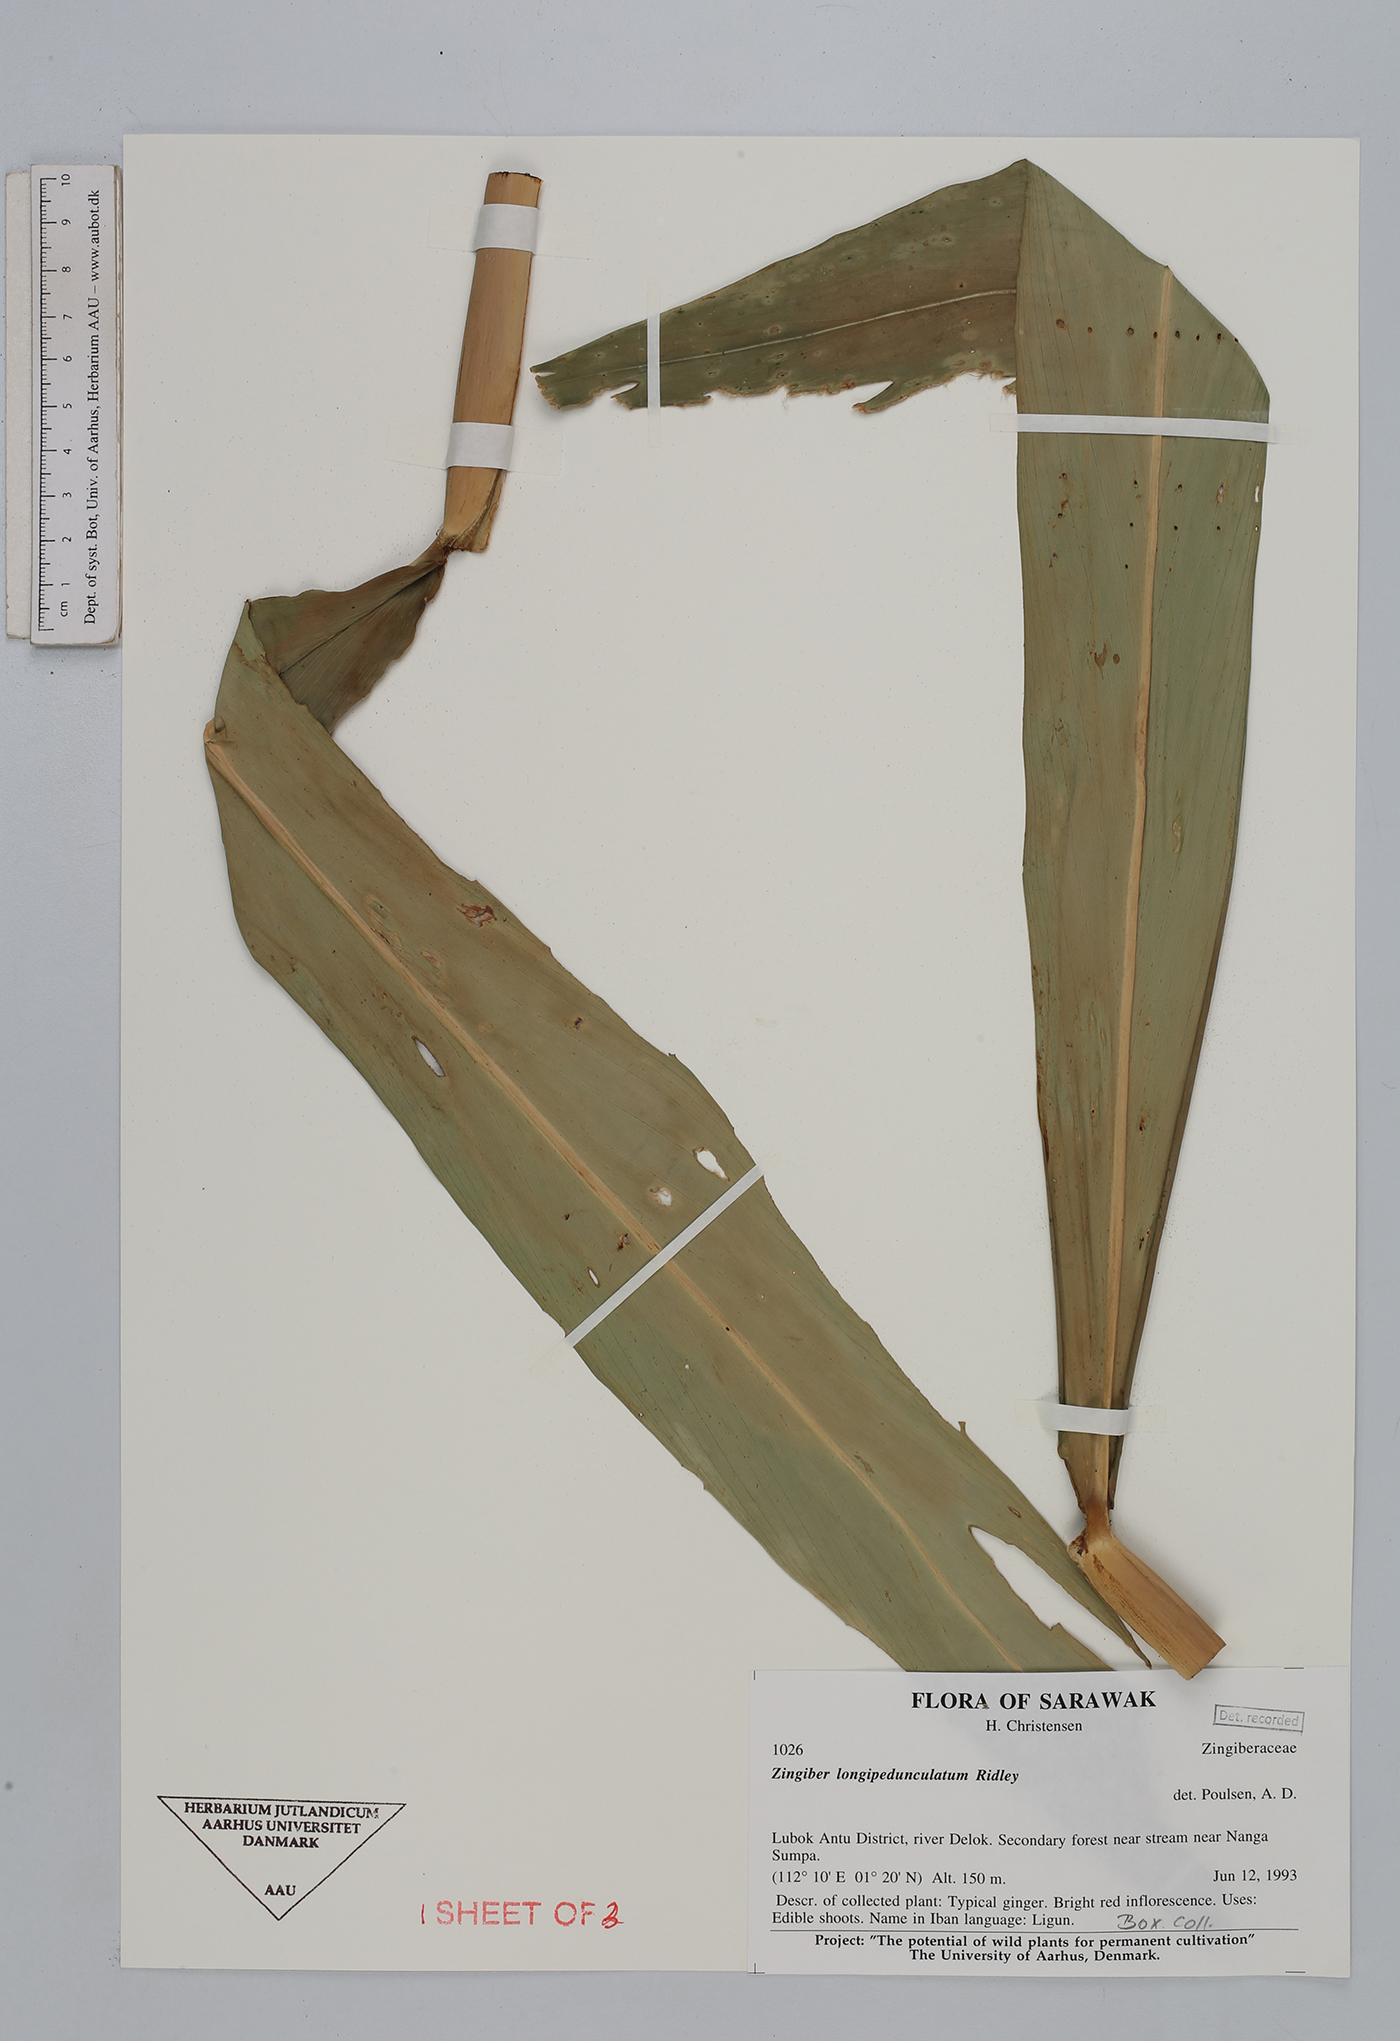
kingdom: Plantae
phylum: Tracheophyta
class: Liliopsida
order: Zingiberales
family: Zingiberaceae
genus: Zingiber
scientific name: Zingiber longipedunculatum
